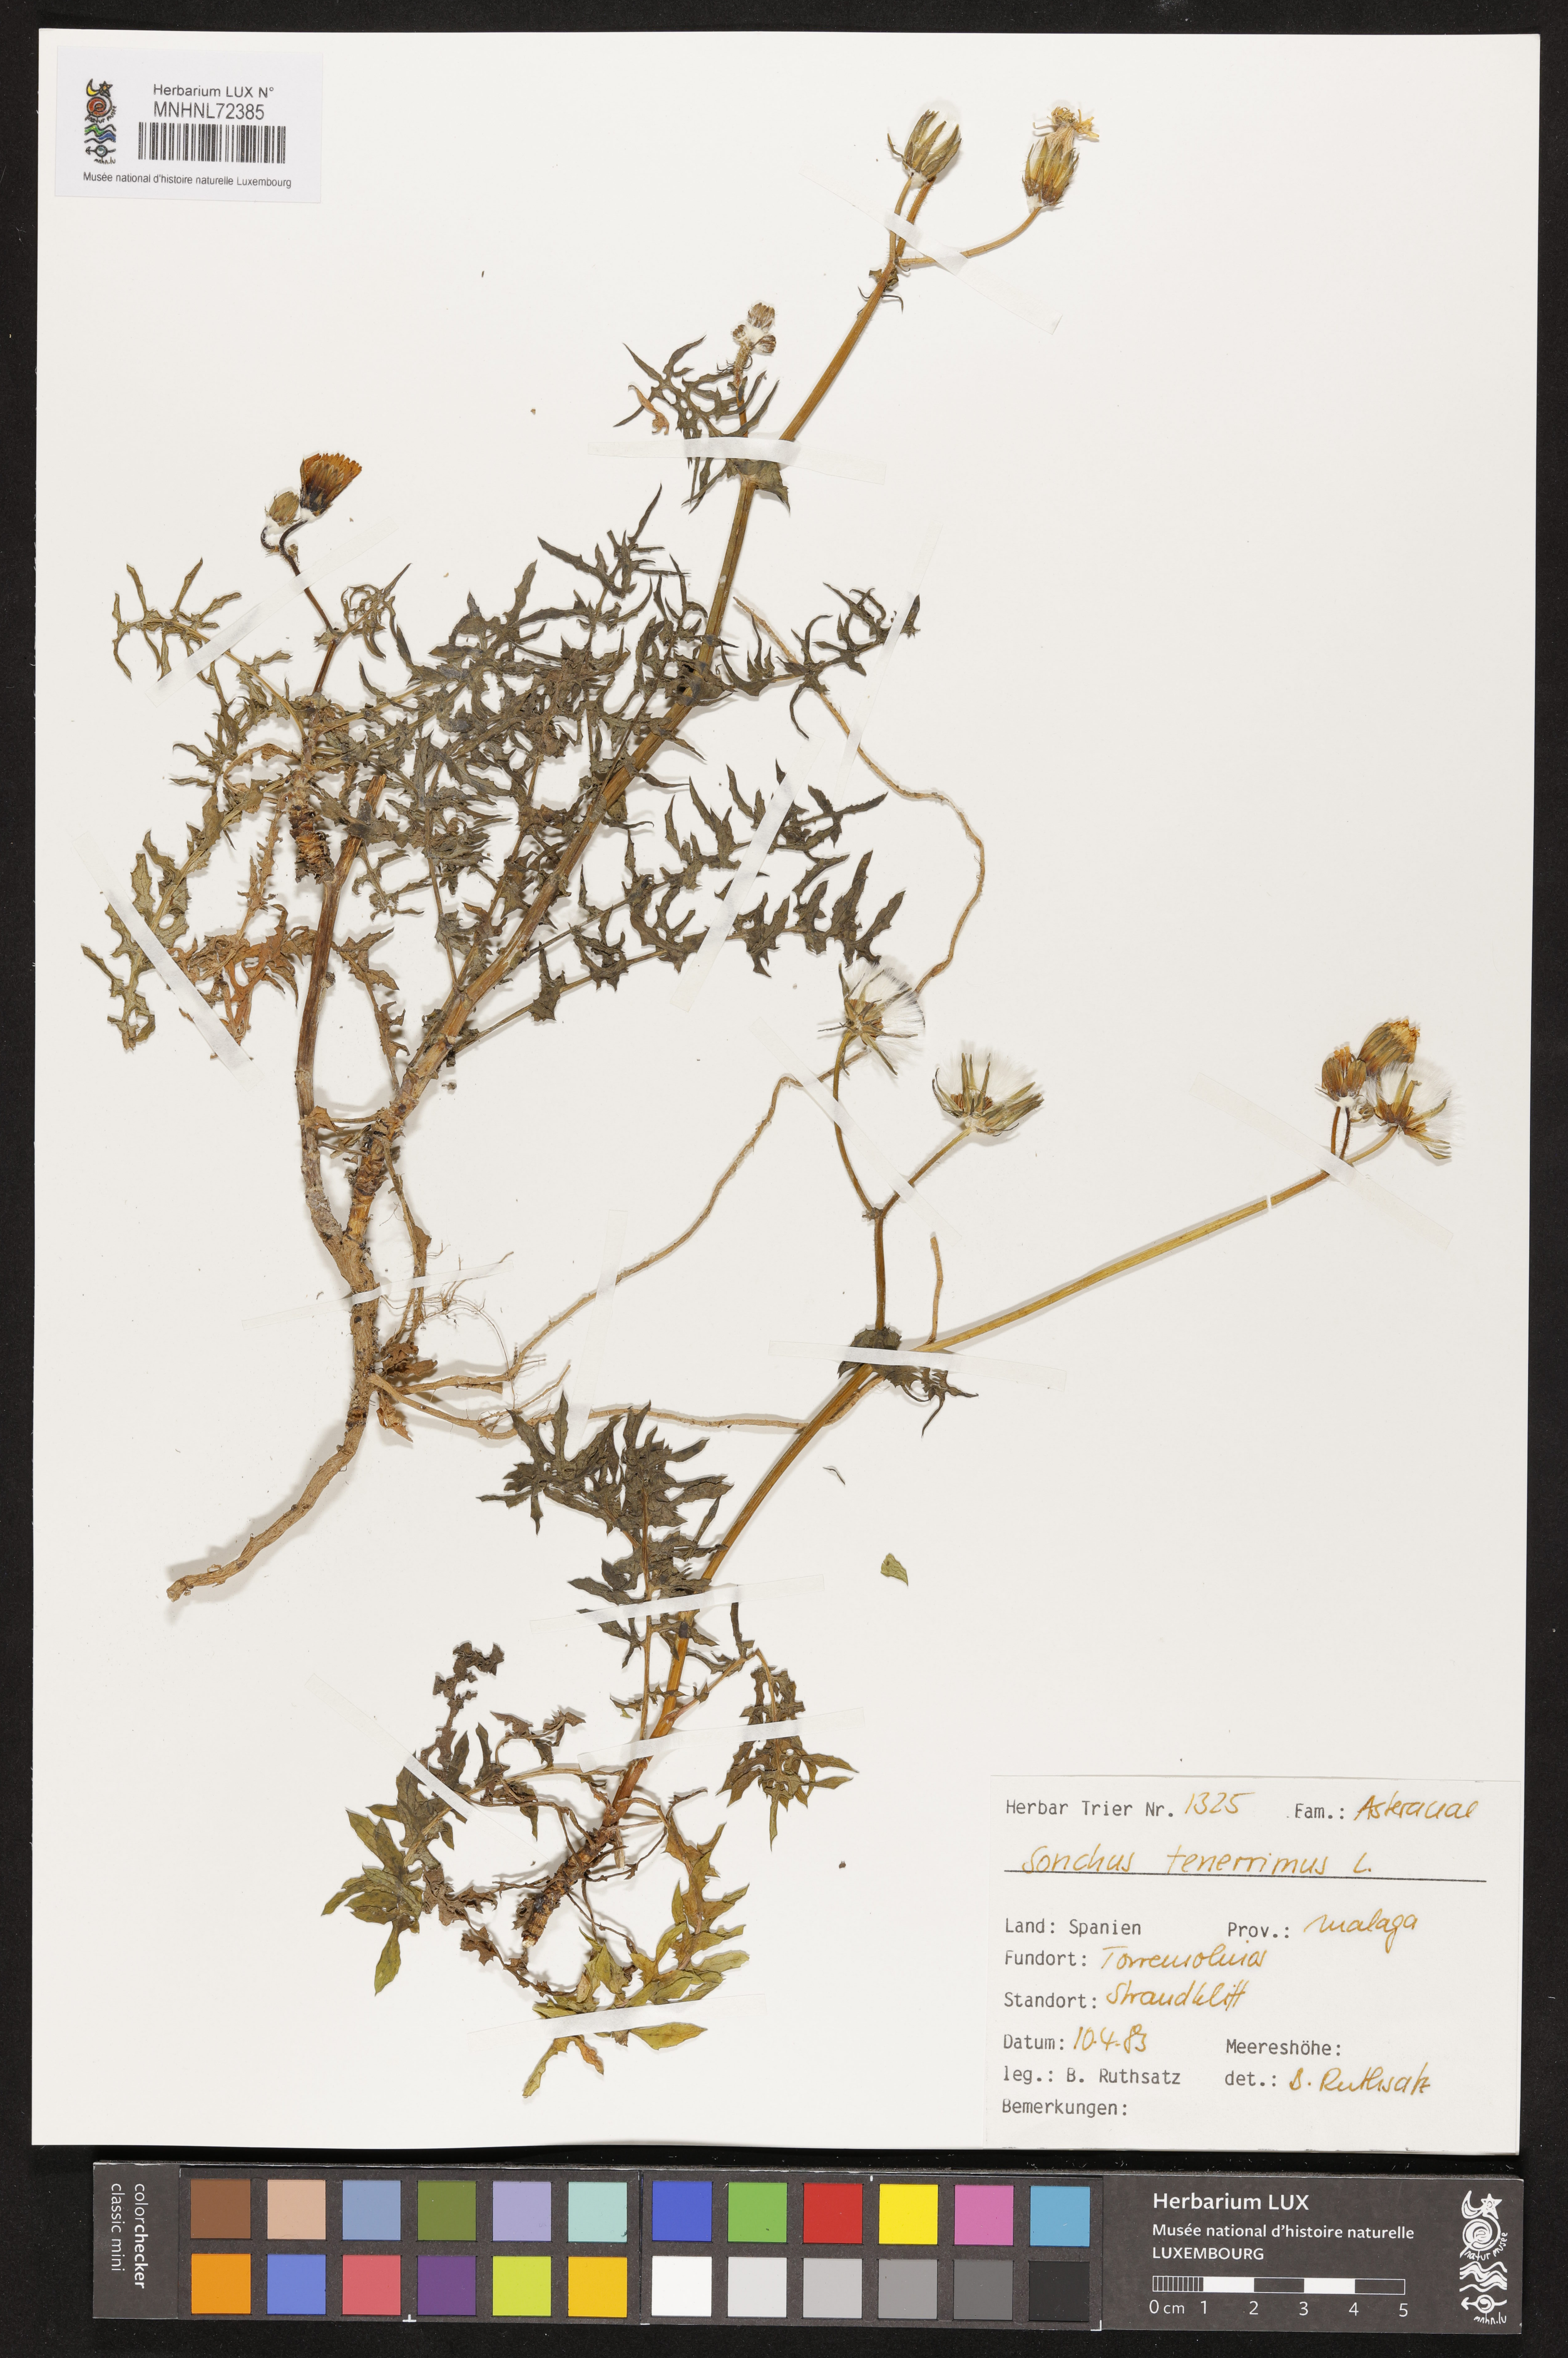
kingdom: Plantae
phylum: Tracheophyta
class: Magnoliopsida
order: Asterales
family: Asteraceae
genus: Sonchus
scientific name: Sonchus tenerrimus
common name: Clammy sowthistle
